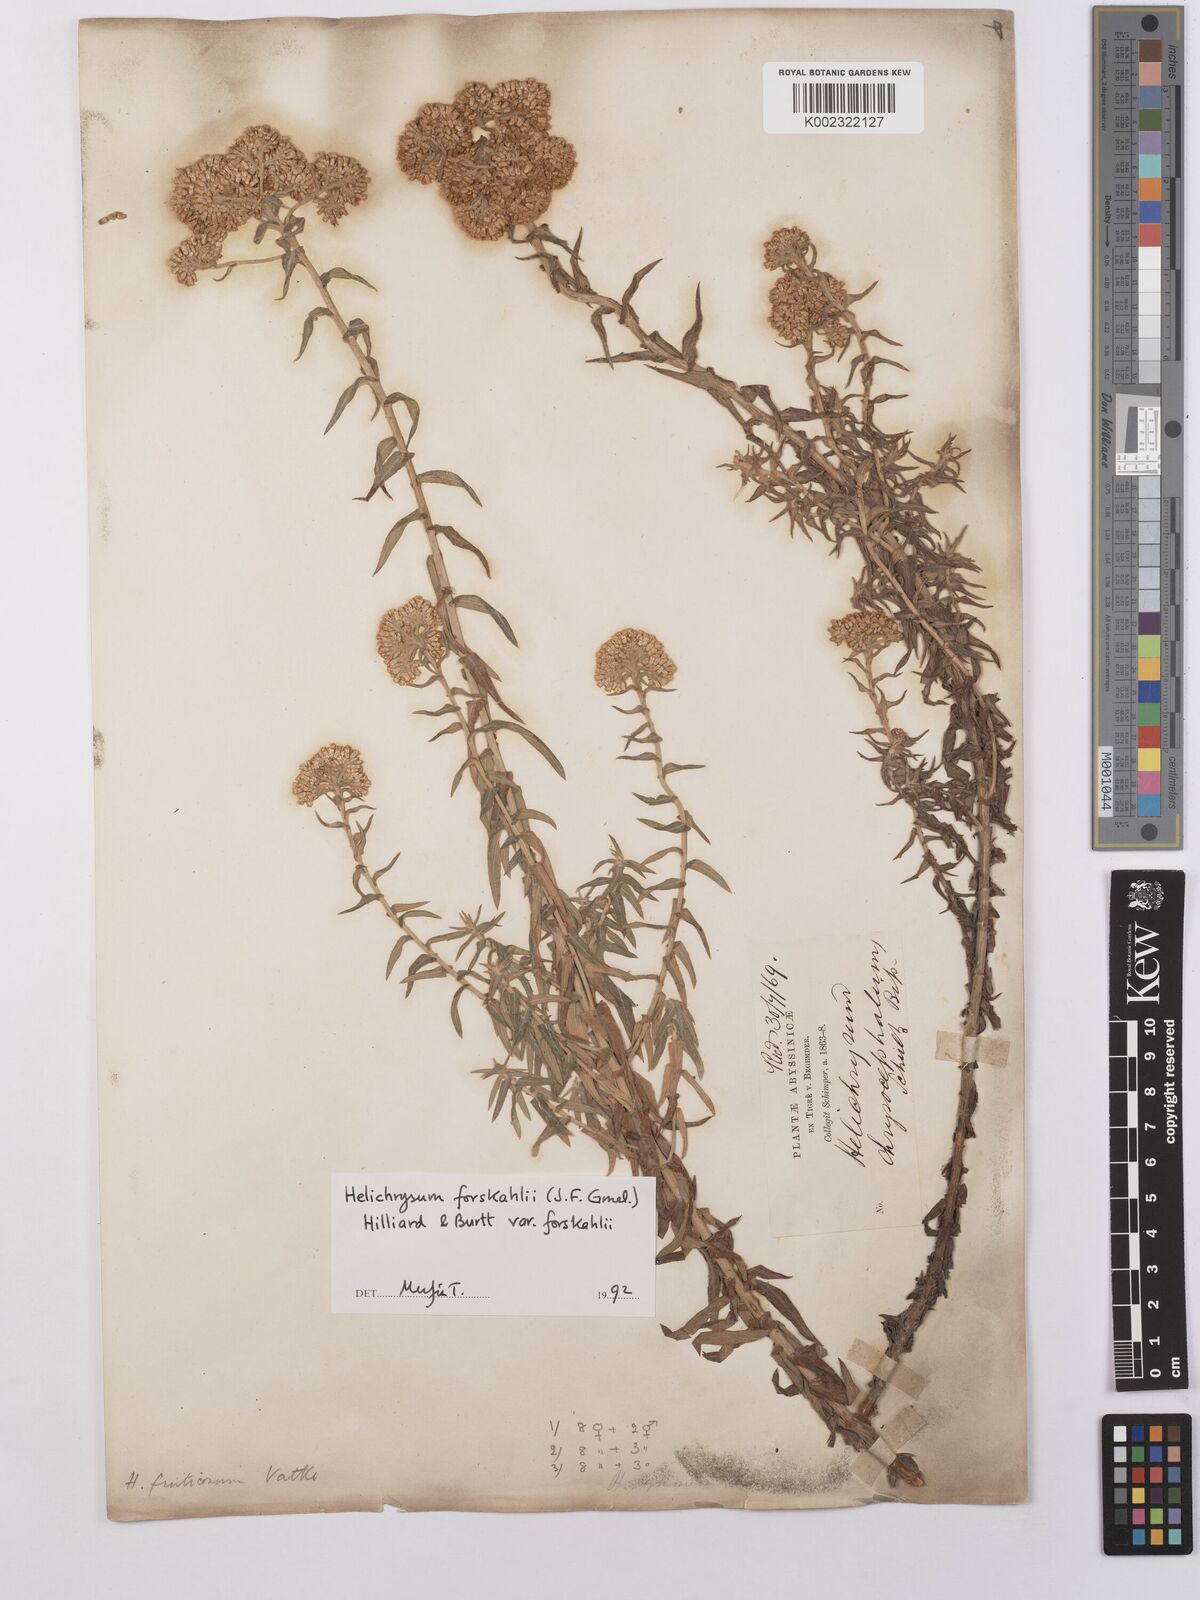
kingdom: Plantae
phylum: Tracheophyta
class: Magnoliopsida
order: Asterales
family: Asteraceae
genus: Helichrysum
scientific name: Helichrysum forskahlii
